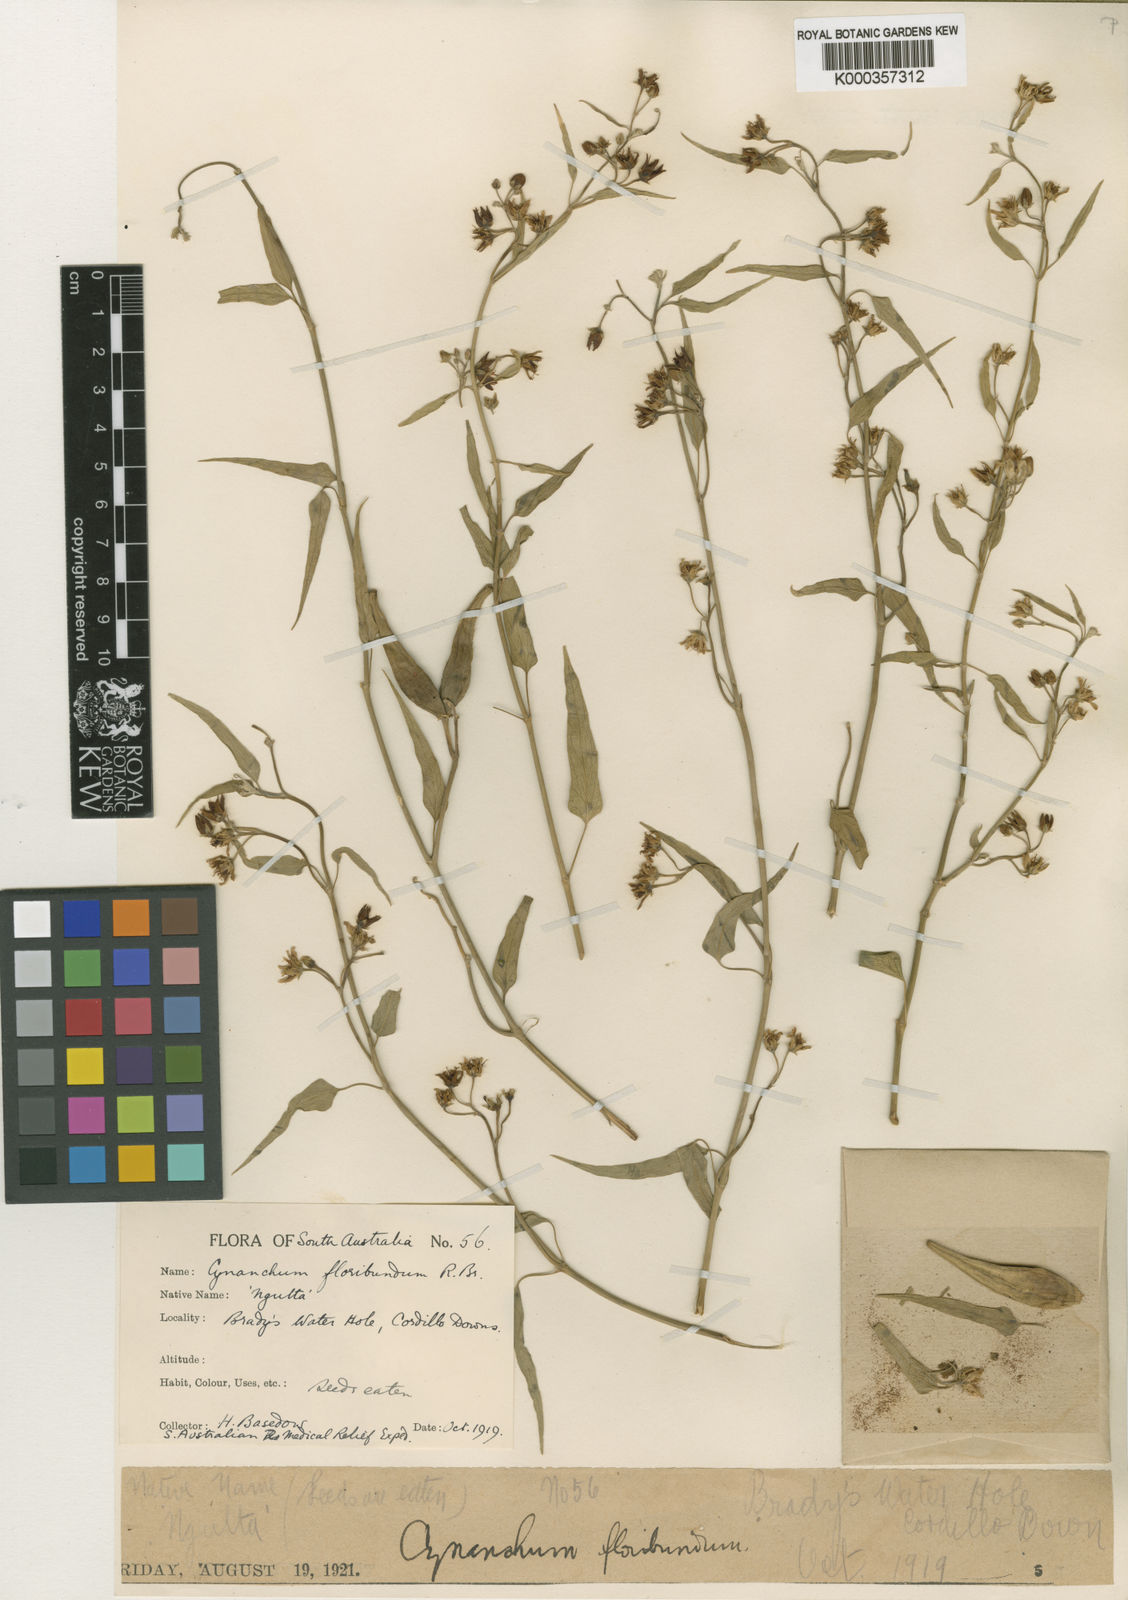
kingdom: Plantae
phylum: Tracheophyta
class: Magnoliopsida
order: Gentianales
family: Apocynaceae
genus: Vincetoxicum
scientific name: Vincetoxicum floribundum
